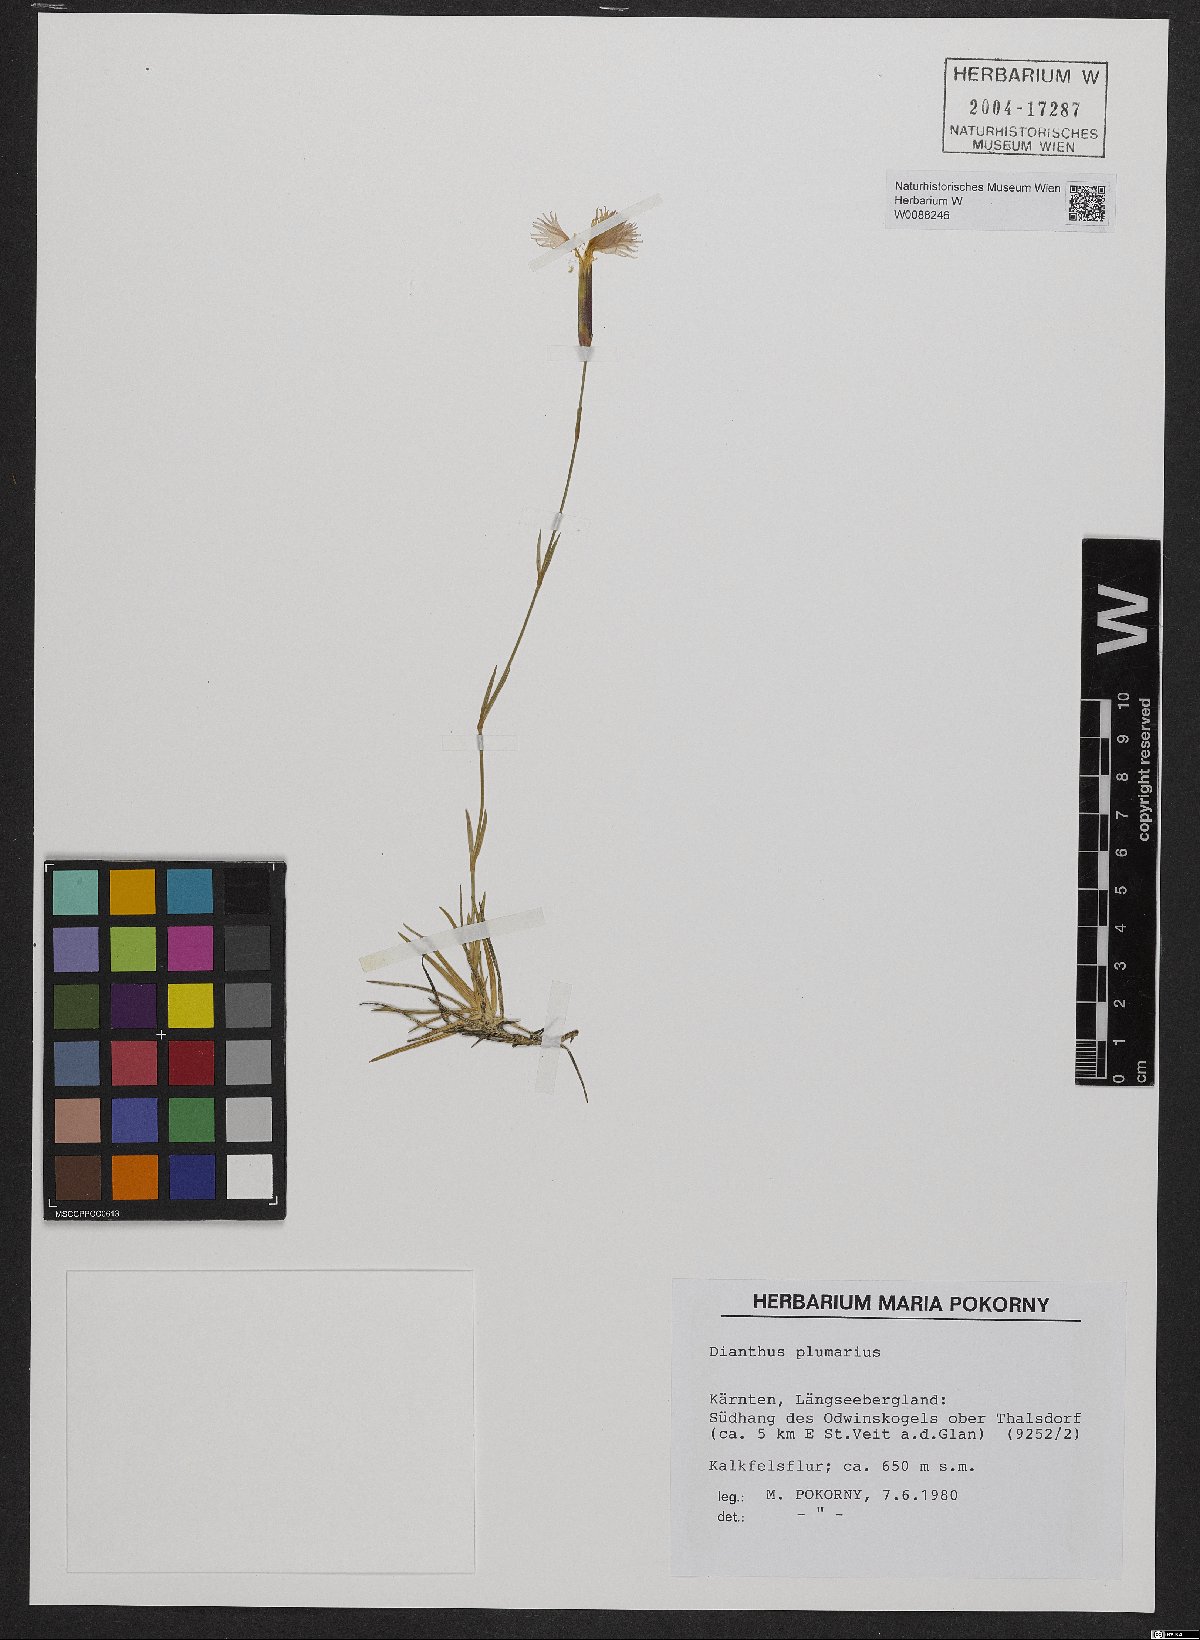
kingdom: Plantae
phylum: Tracheophyta
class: Magnoliopsida
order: Caryophyllales
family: Caryophyllaceae
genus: Dianthus
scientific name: Dianthus plumarius
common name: Pink
